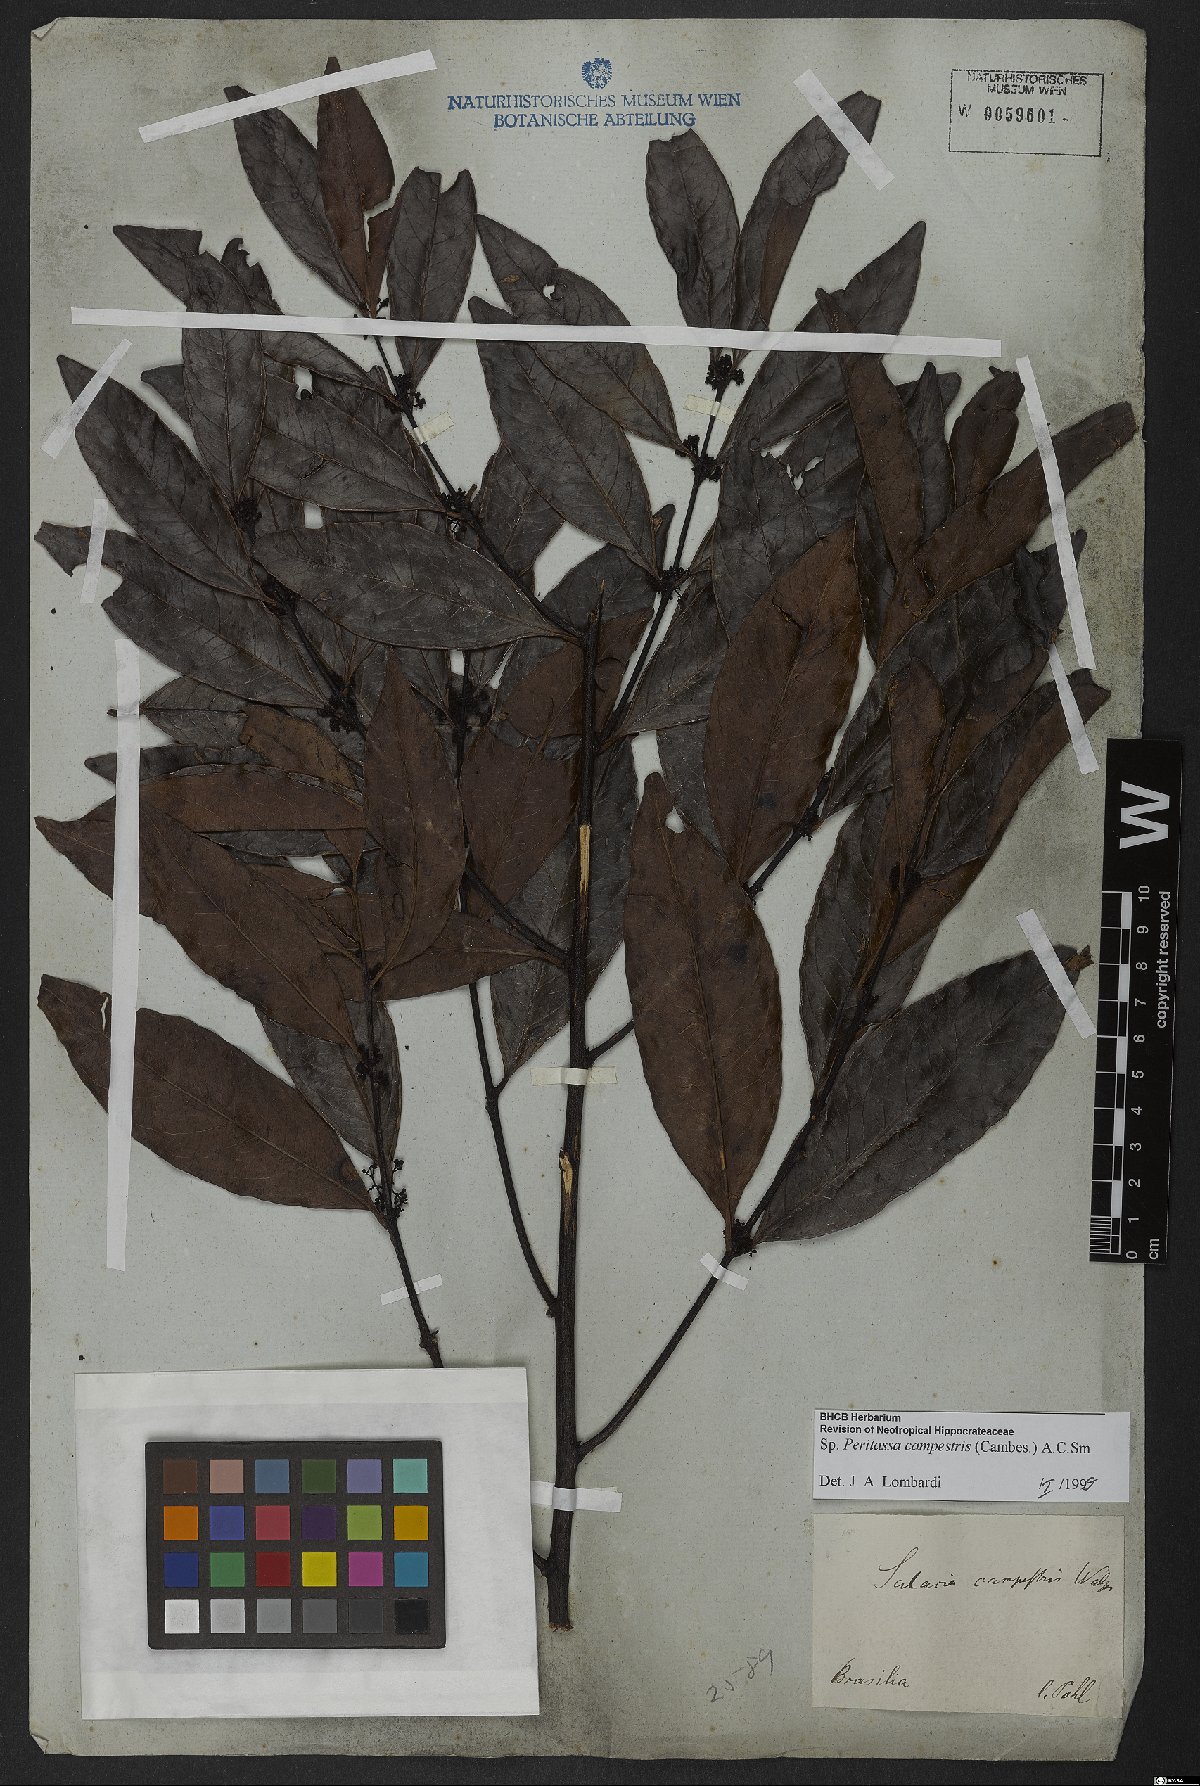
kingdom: Plantae
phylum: Tracheophyta
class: Magnoliopsida
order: Celastrales
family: Celastraceae
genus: Peritassa
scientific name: Peritassa campestris
